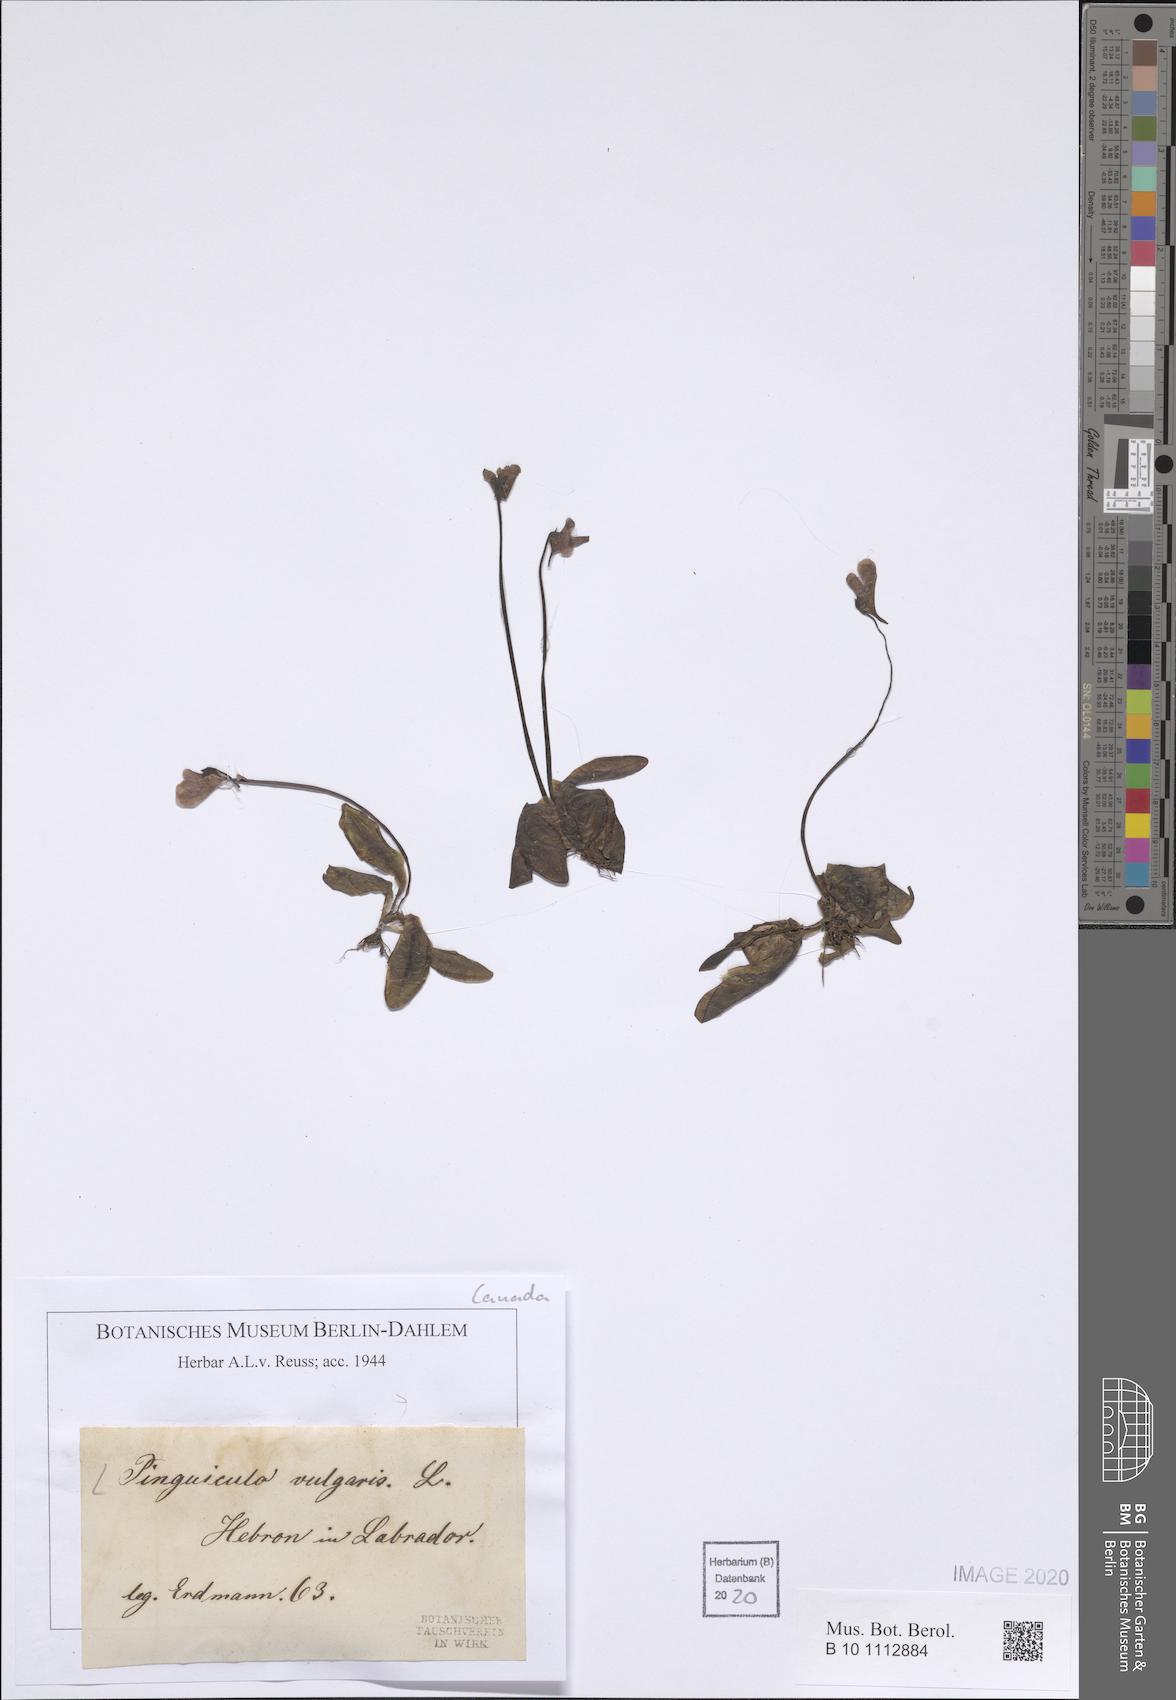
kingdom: Plantae
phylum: Tracheophyta
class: Magnoliopsida
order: Lamiales
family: Lentibulariaceae
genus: Pinguicula
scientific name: Pinguicula vulgaris
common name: Common butterwort
